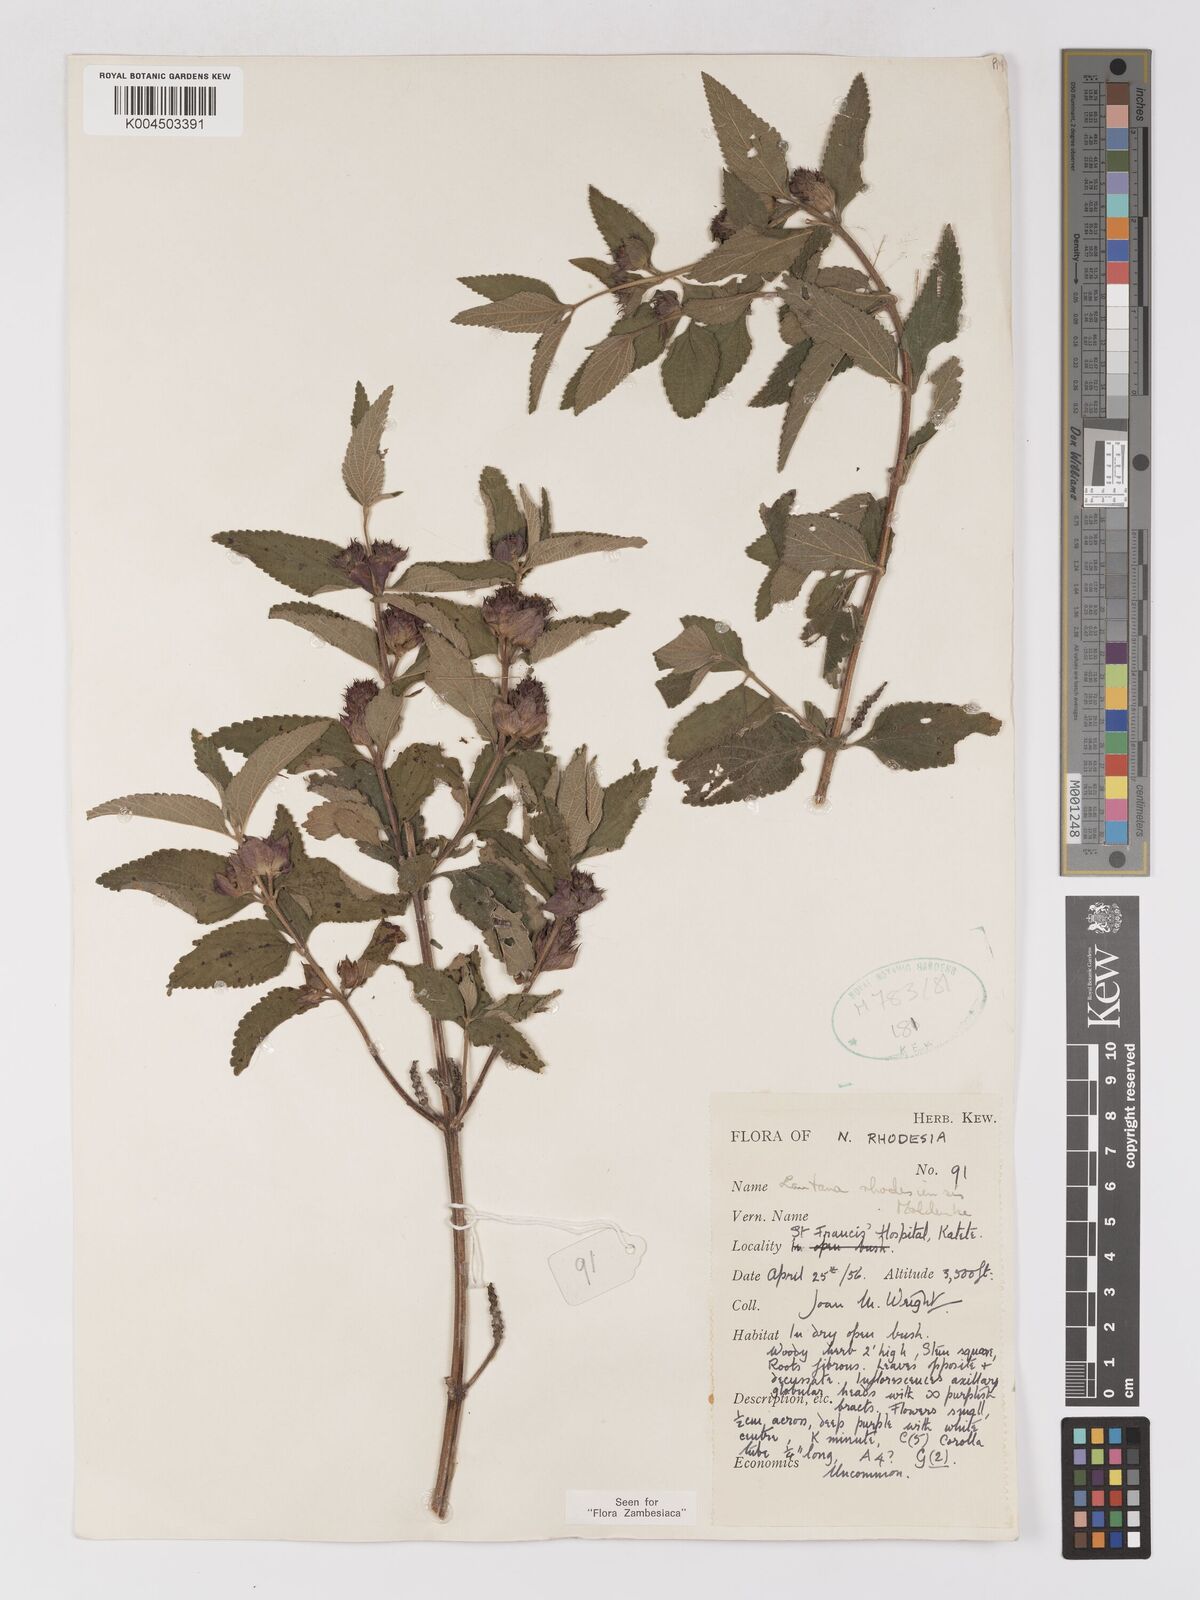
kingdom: Plantae
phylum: Tracheophyta
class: Magnoliopsida
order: Lamiales
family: Verbenaceae
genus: Lantana
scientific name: Lantana ukambensis
